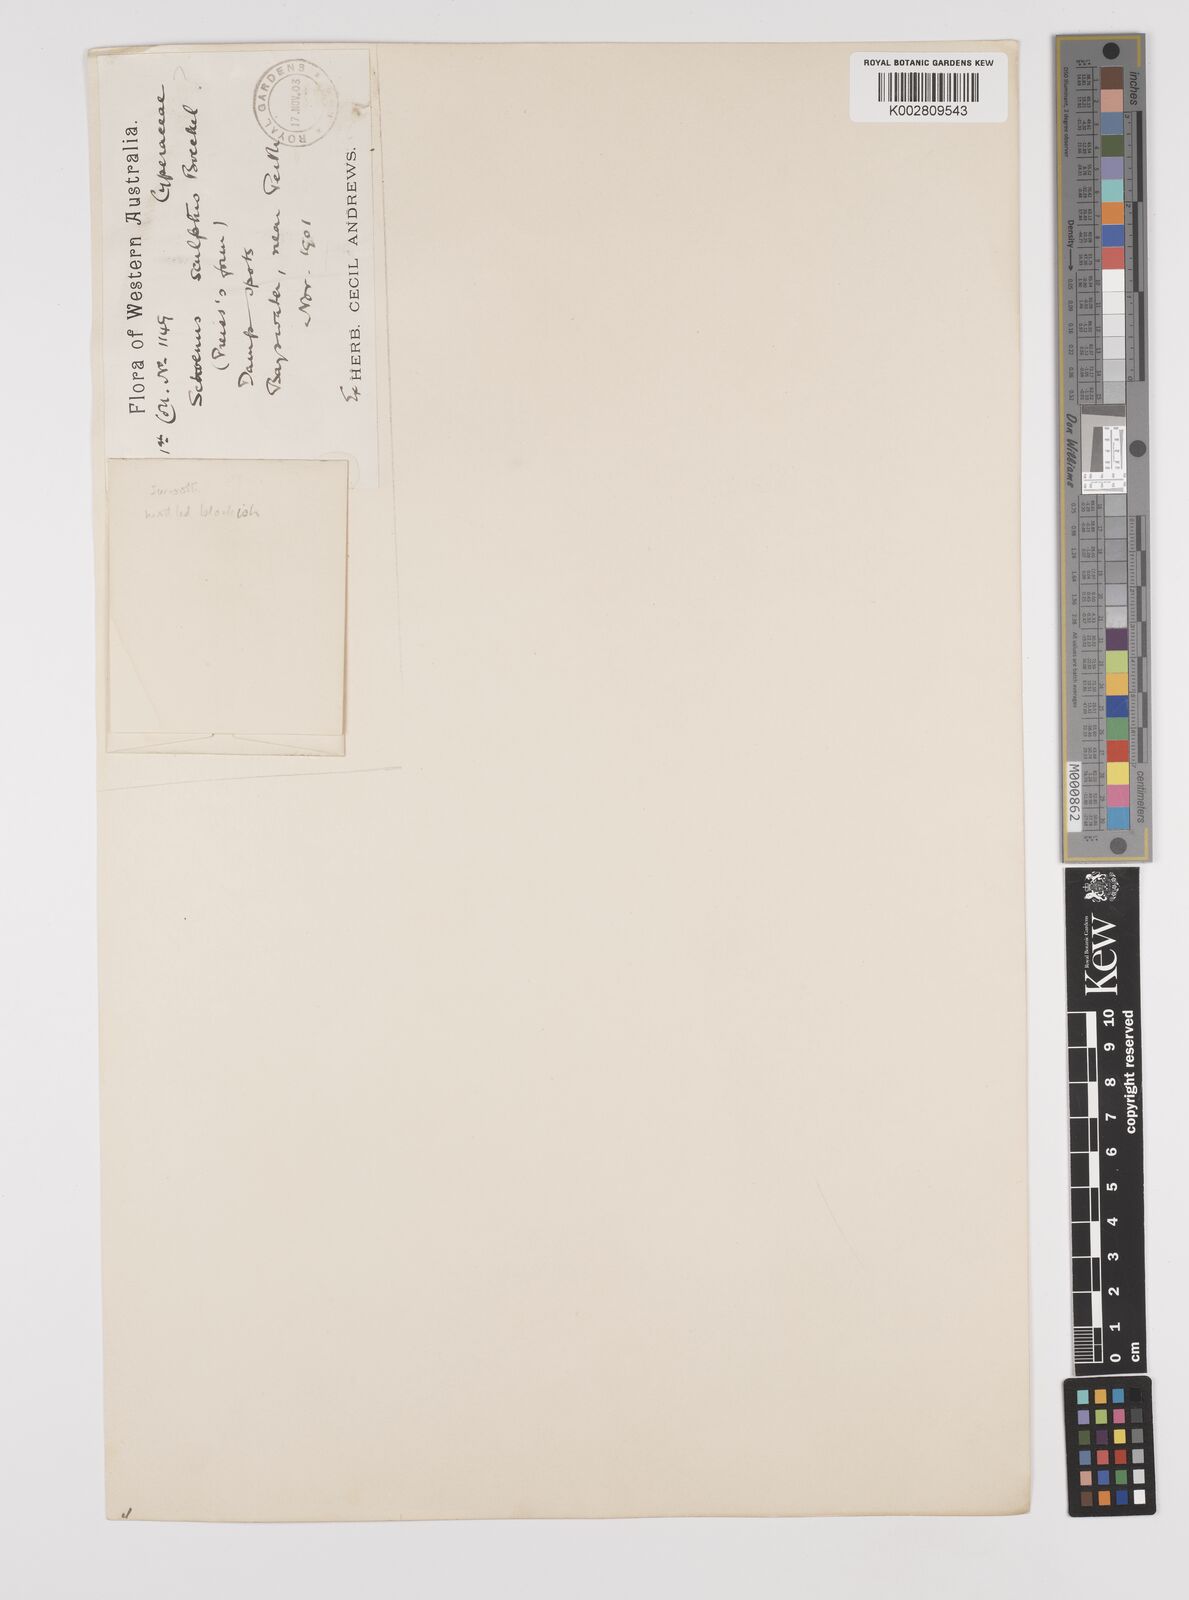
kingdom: Plantae
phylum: Tracheophyta
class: Liliopsida
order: Poales
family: Cyperaceae
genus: Schoenus
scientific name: Schoenus
